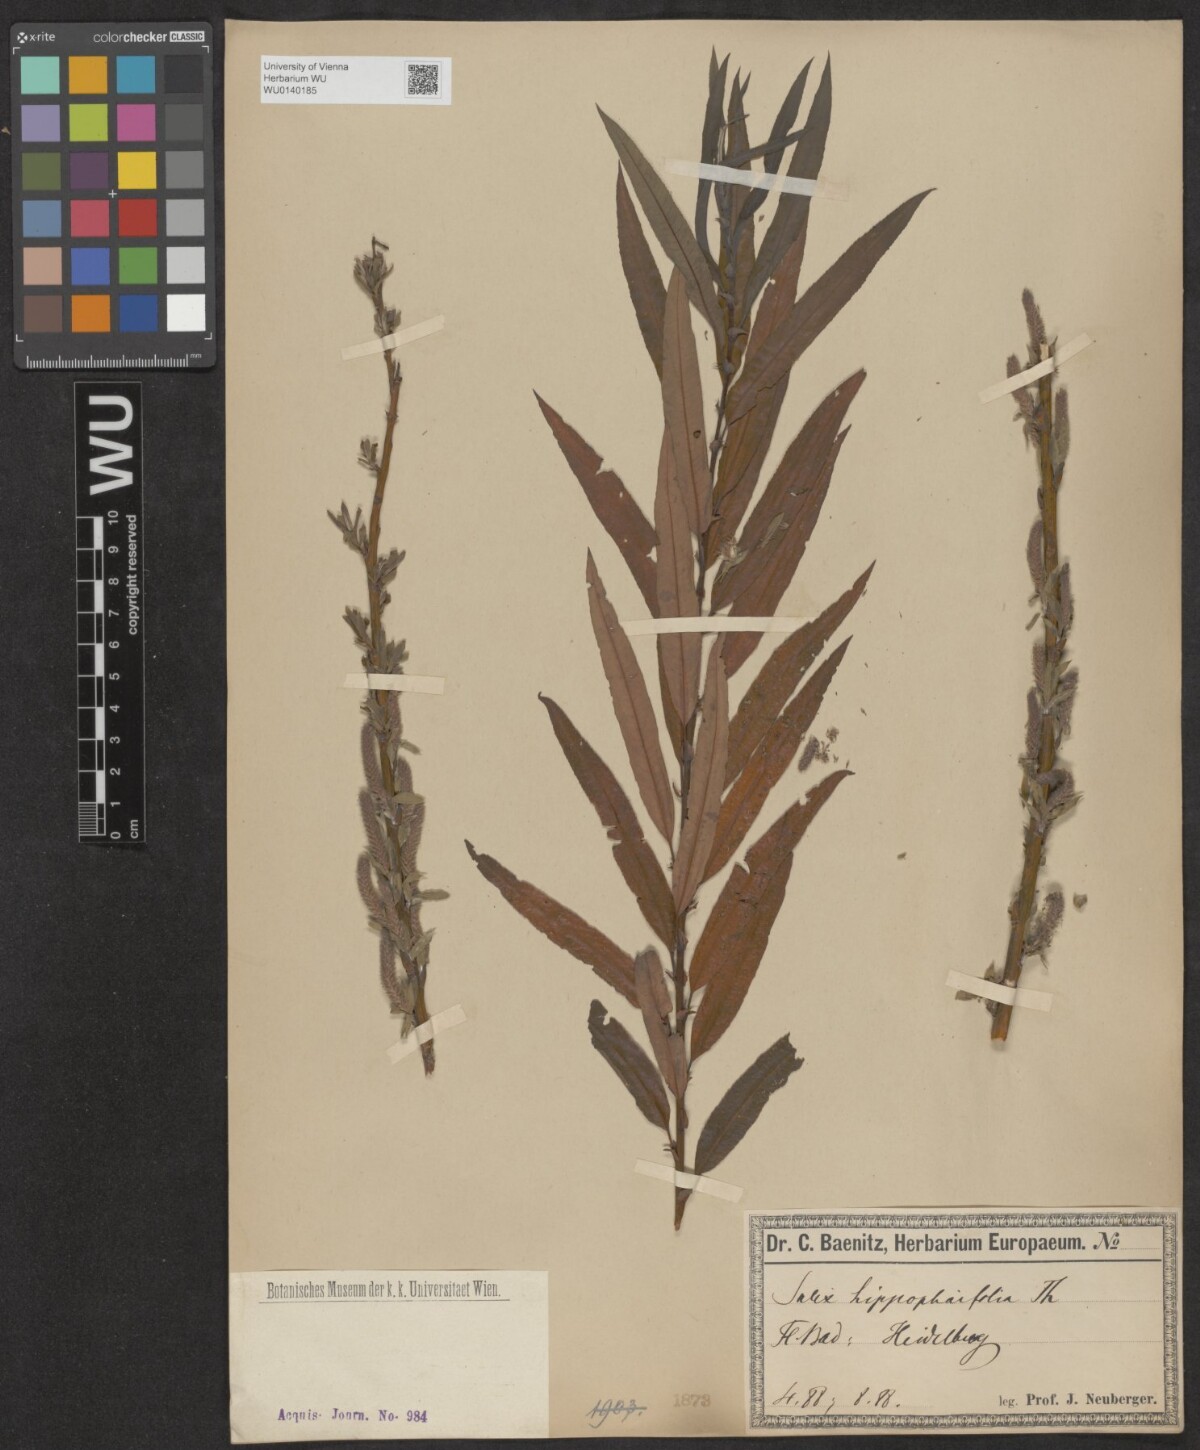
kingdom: Plantae
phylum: Tracheophyta
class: Magnoliopsida
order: Malpighiales
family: Salicaceae
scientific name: Salicaceae
